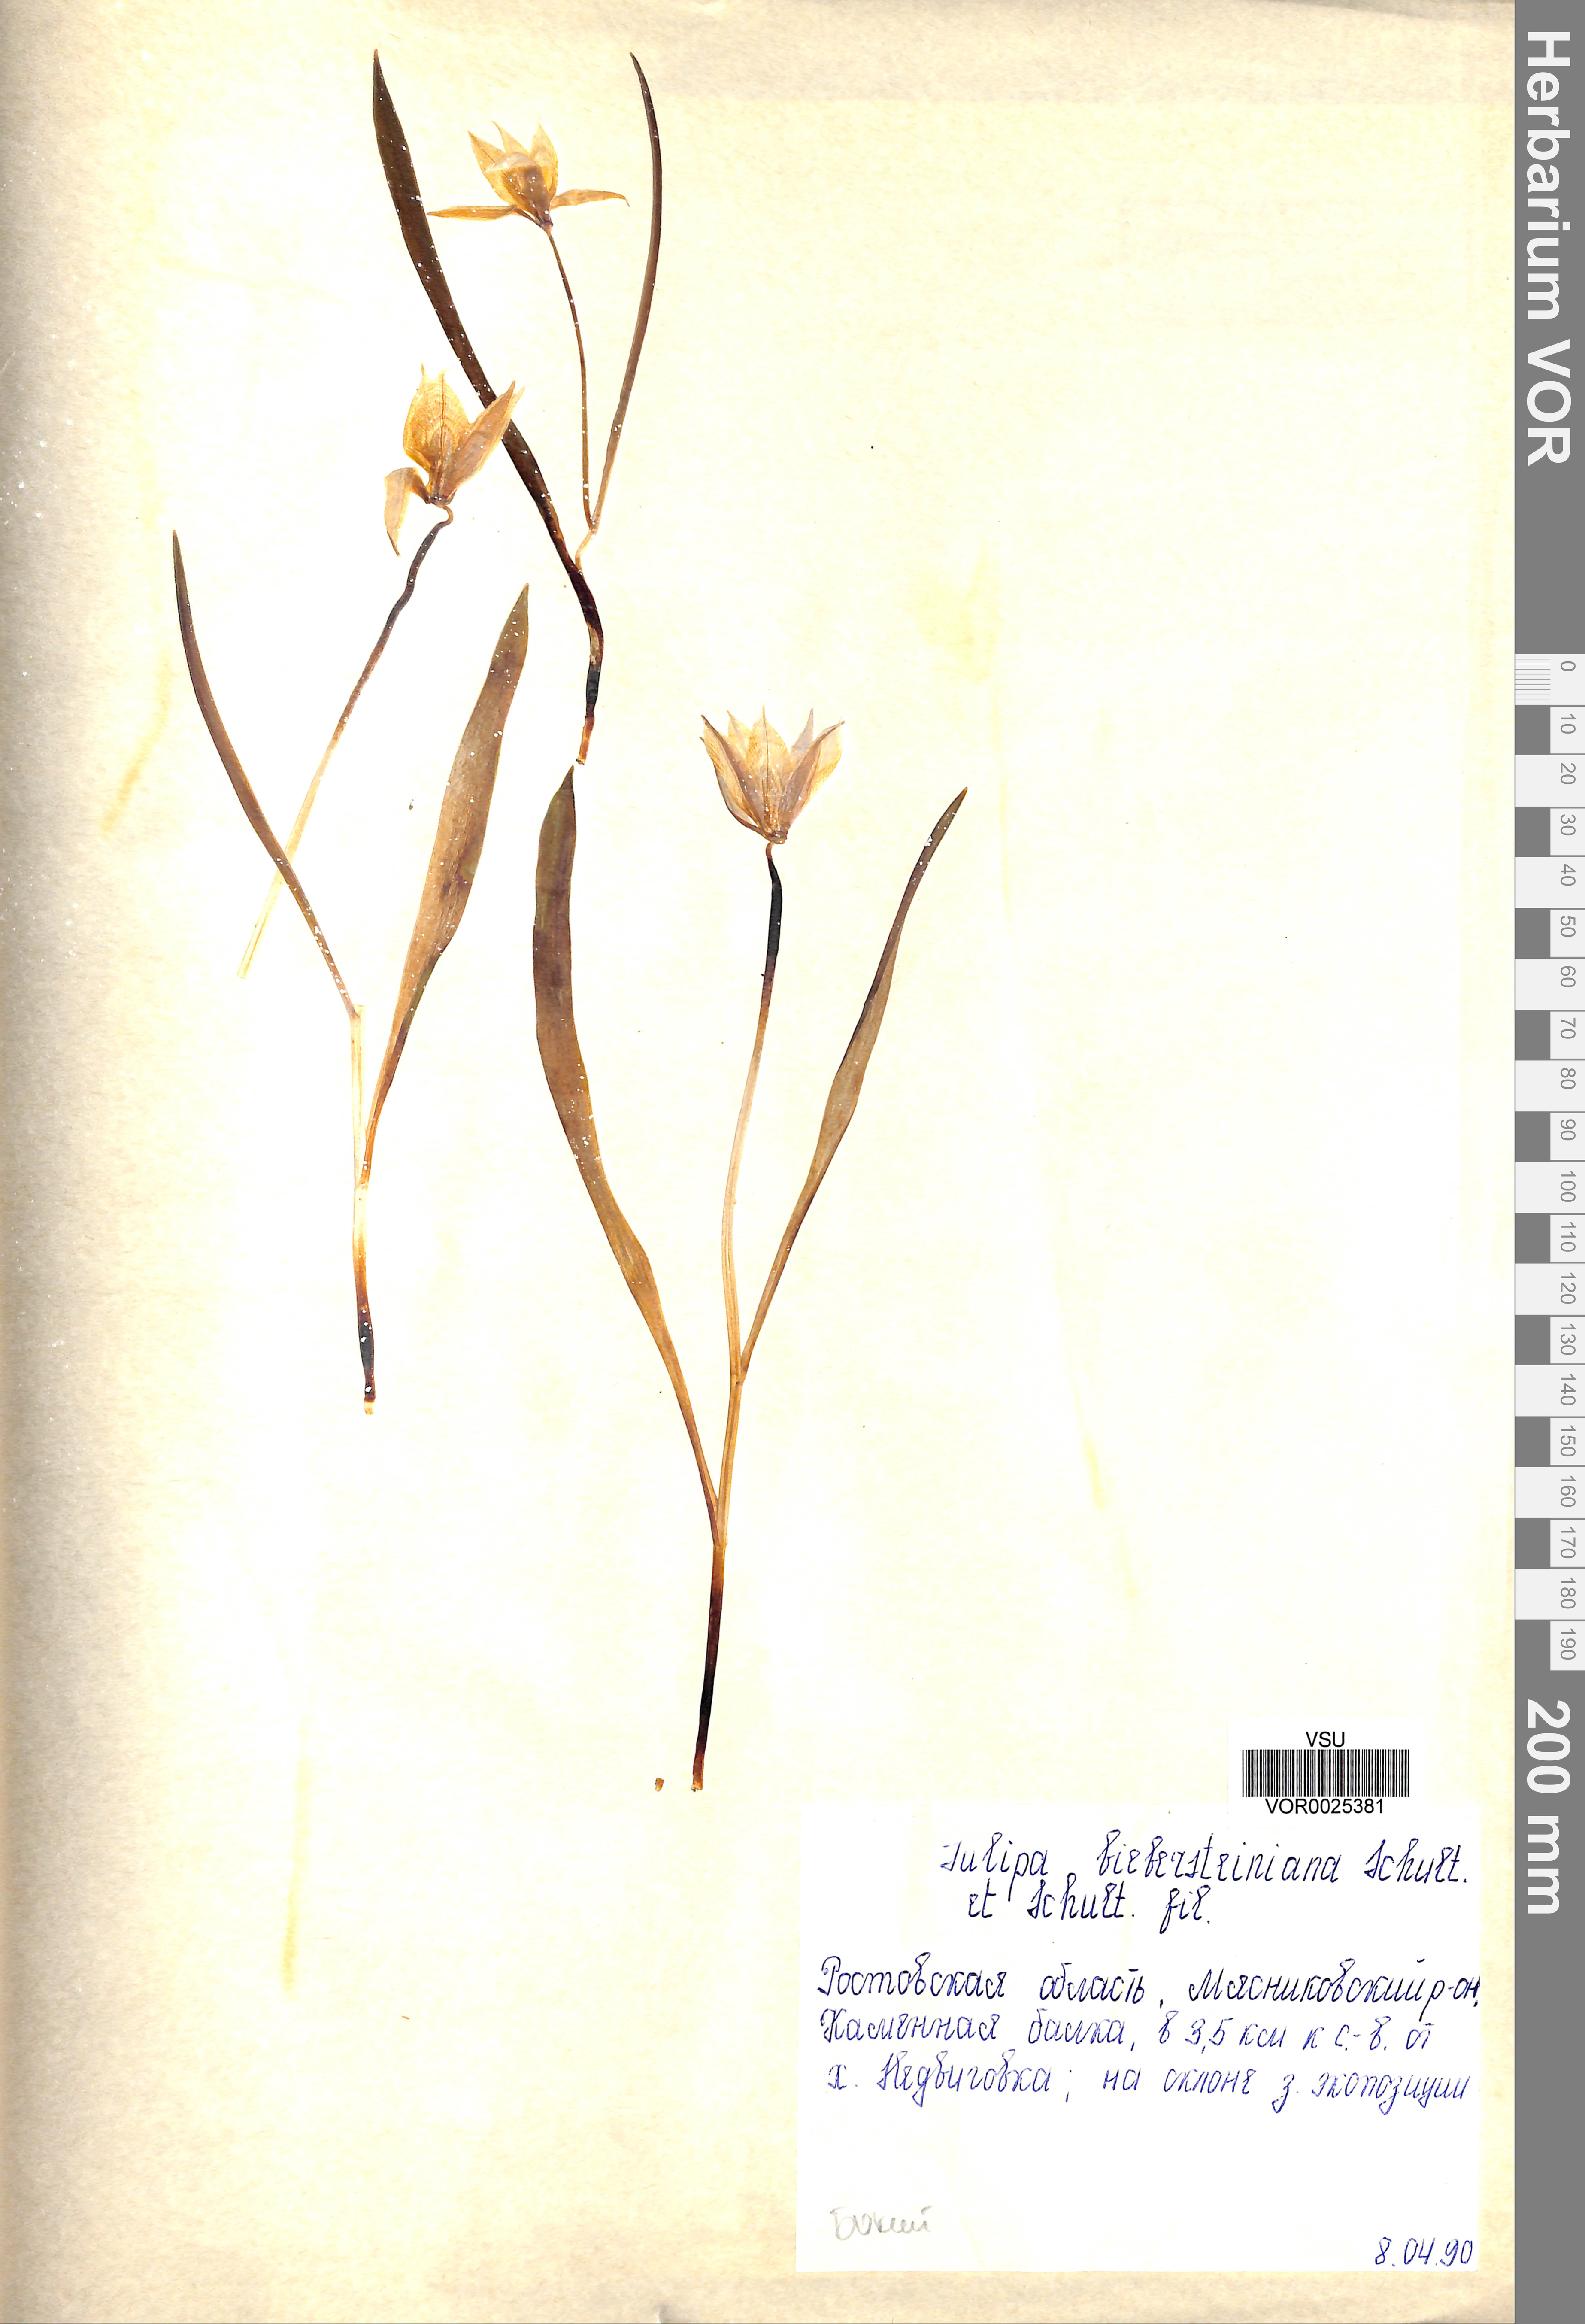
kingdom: Plantae
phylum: Tracheophyta
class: Liliopsida
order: Liliales
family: Liliaceae
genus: Tulipa
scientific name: Tulipa sylvestris
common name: Wild tulip
